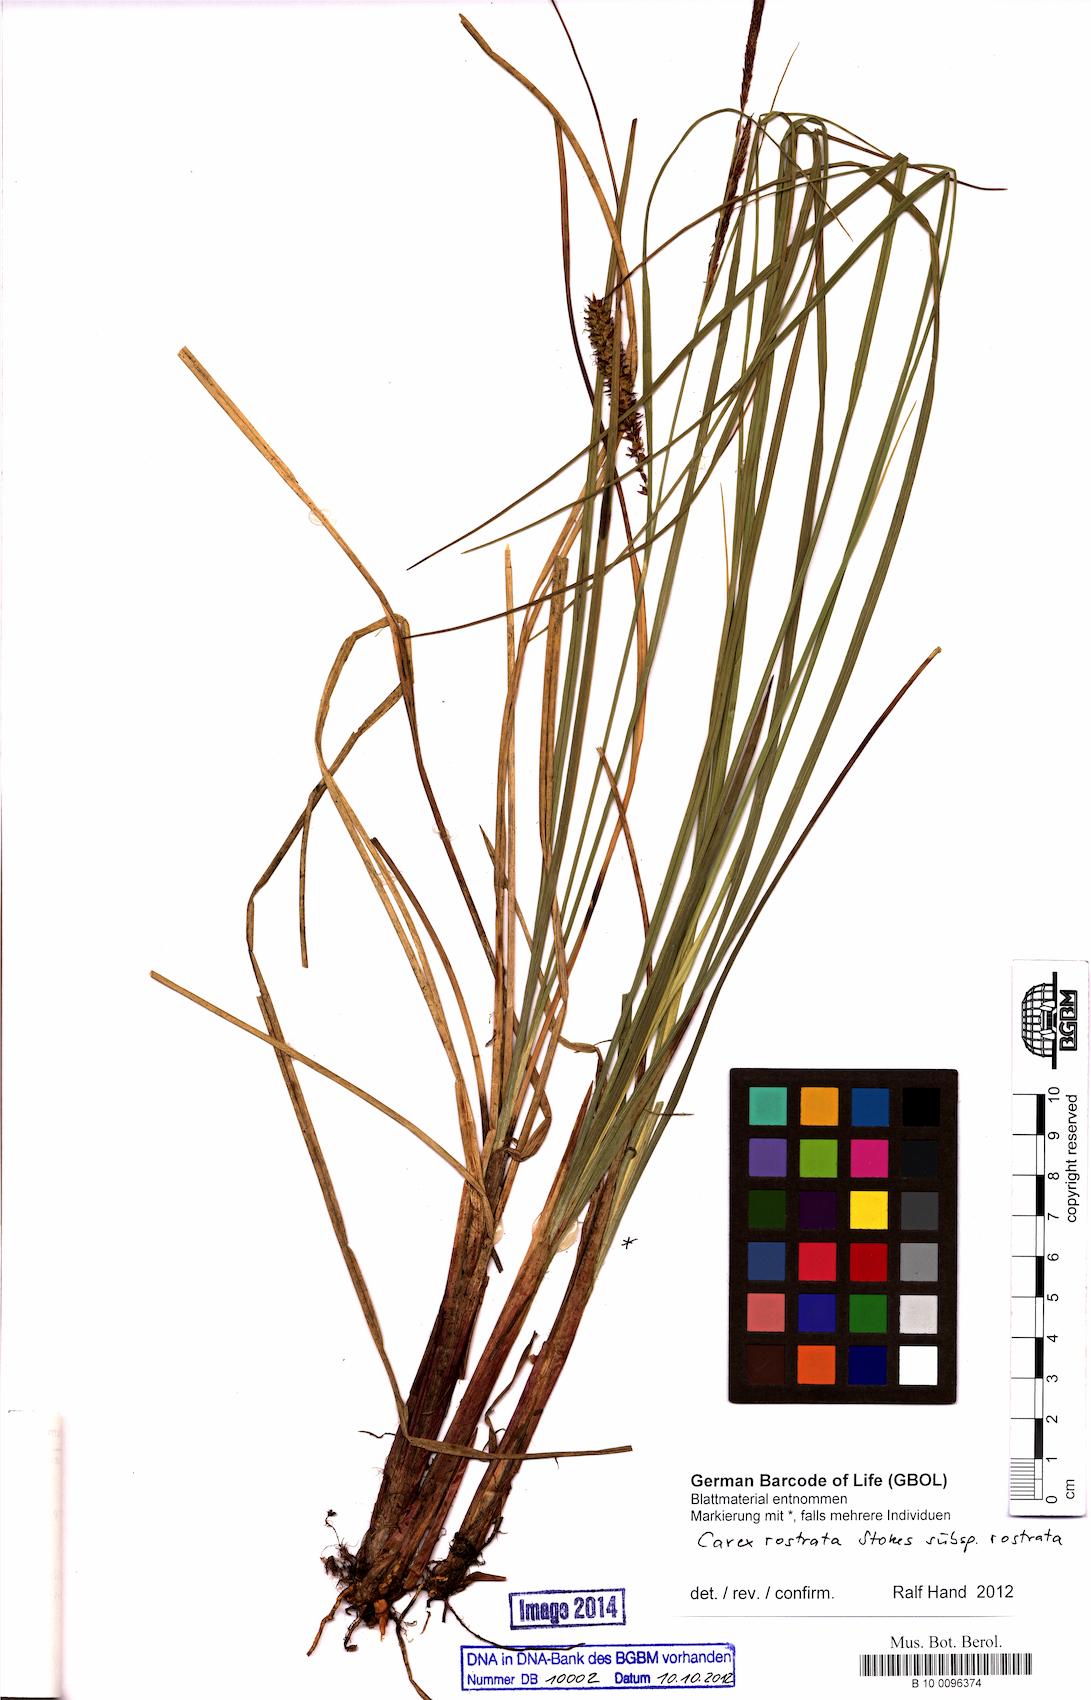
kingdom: Plantae
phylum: Tracheophyta
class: Liliopsida
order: Poales
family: Cyperaceae
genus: Carex
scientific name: Carex rostrata
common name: Bottle sedge
